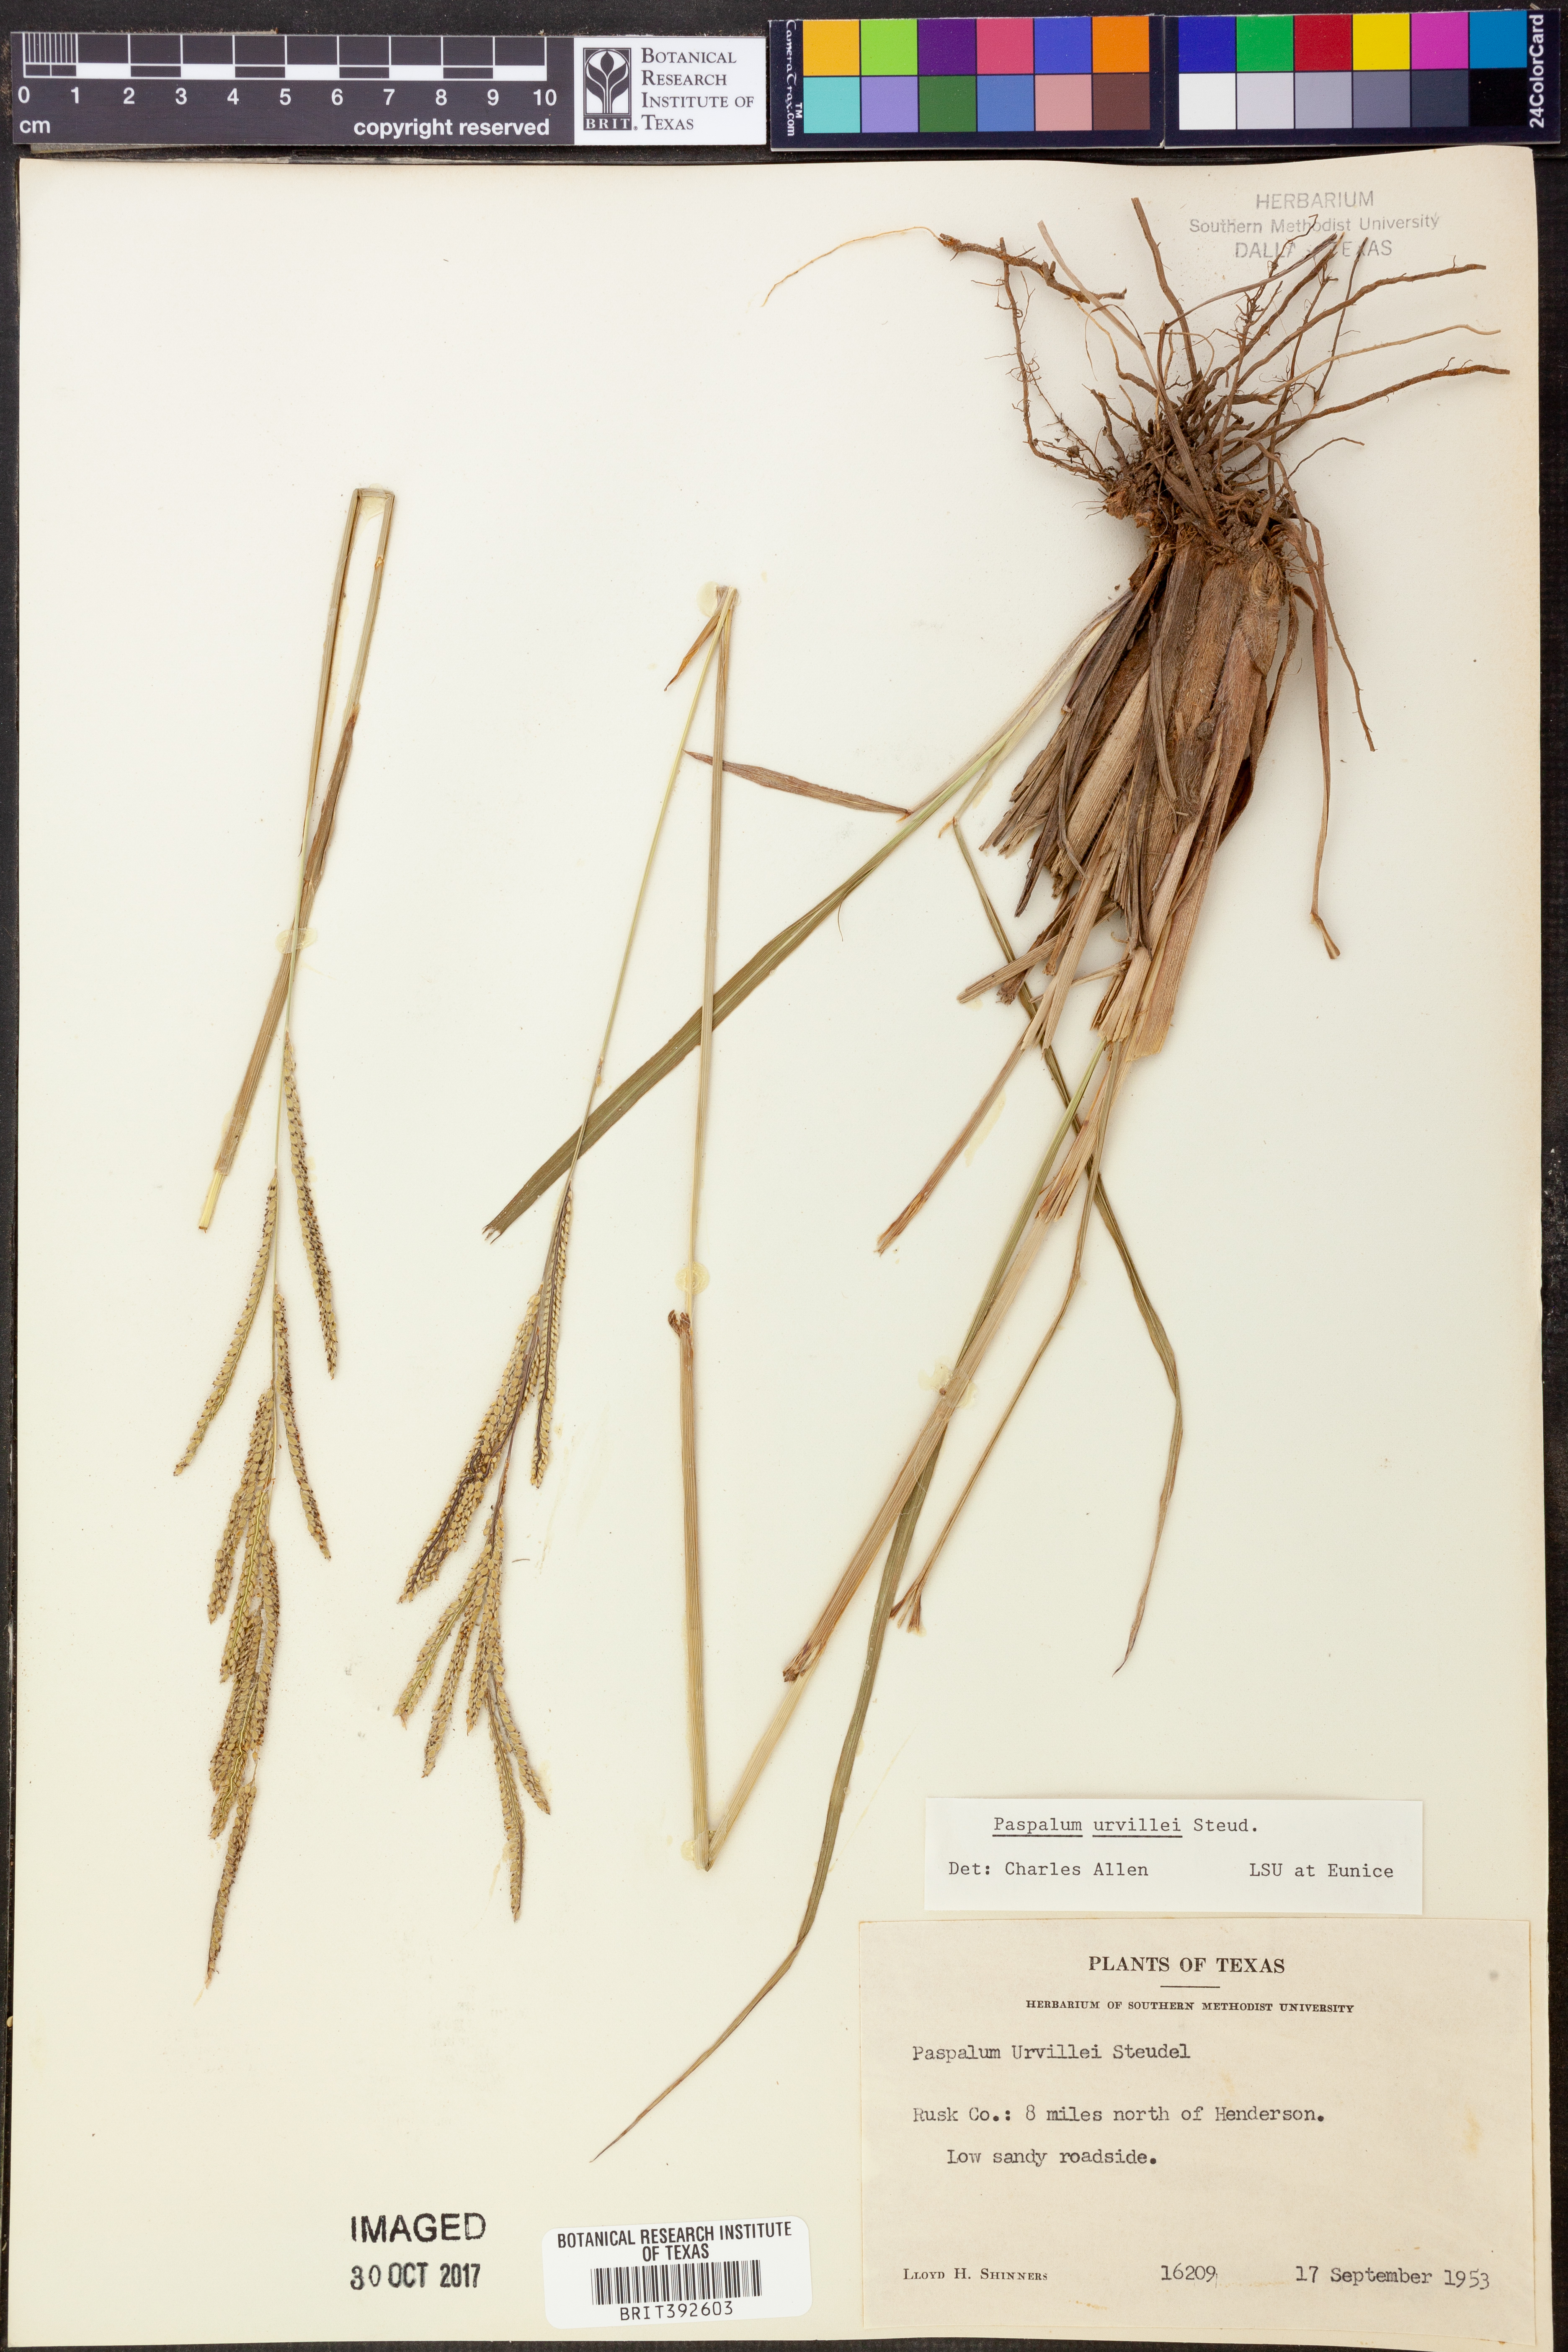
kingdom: Plantae
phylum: Tracheophyta
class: Liliopsida
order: Poales
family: Poaceae
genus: Paspalum
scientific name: Paspalum urvillei
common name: Vasey's grass
